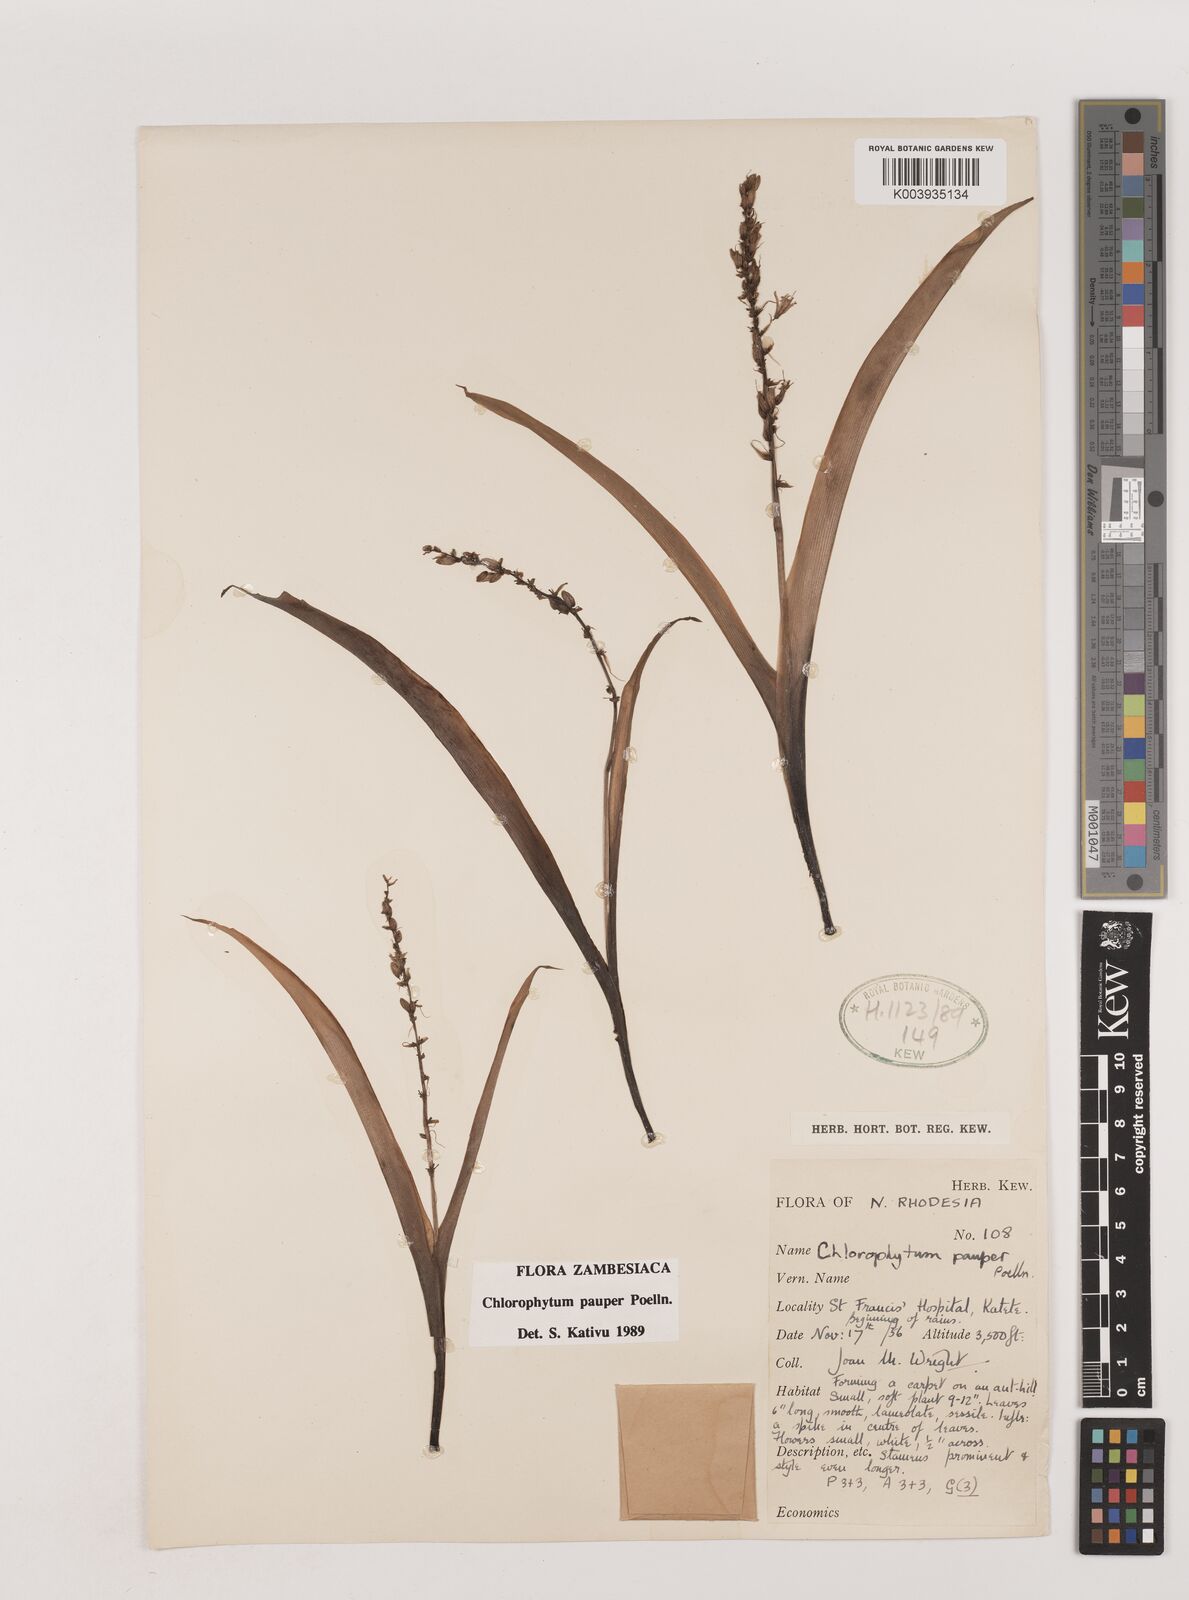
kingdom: Plantae
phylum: Tracheophyta
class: Liliopsida
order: Asparagales
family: Asparagaceae
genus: Chlorophytum
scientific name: Chlorophytum pauper
